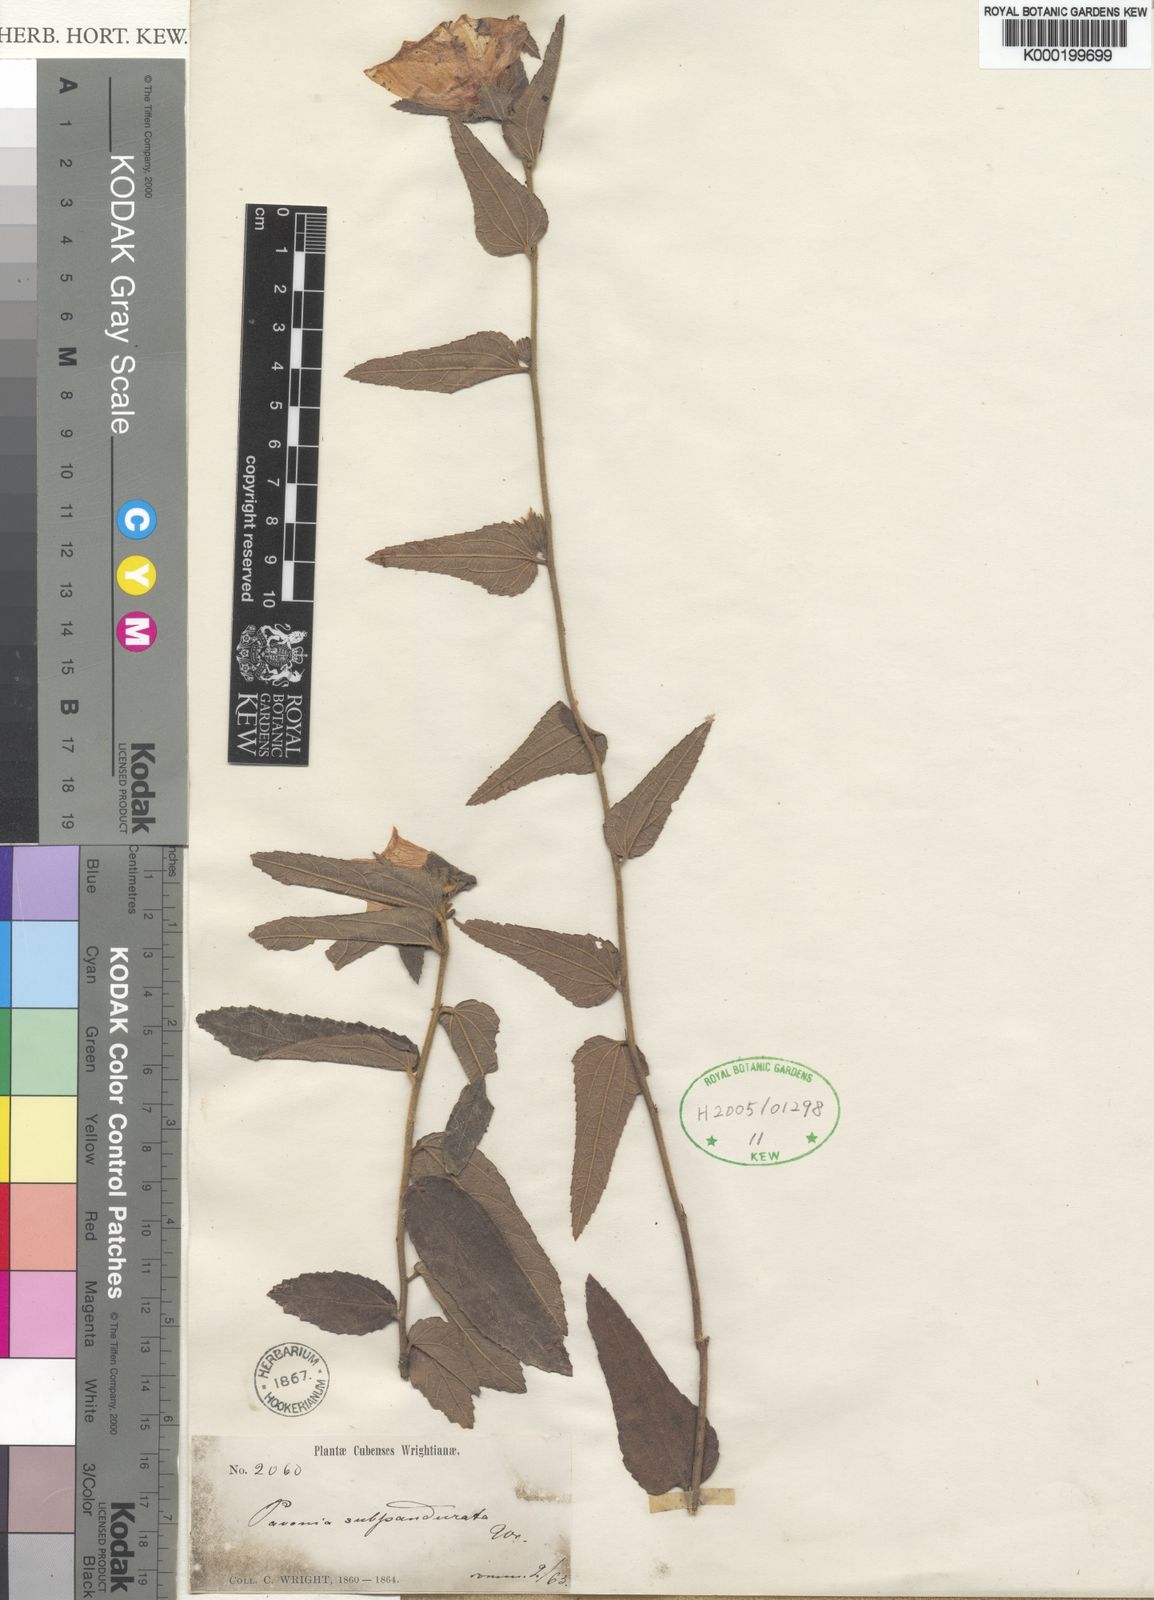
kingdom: Plantae
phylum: Tracheophyta
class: Magnoliopsida
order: Malvales
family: Malvaceae
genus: Peltaea
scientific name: Peltaea
